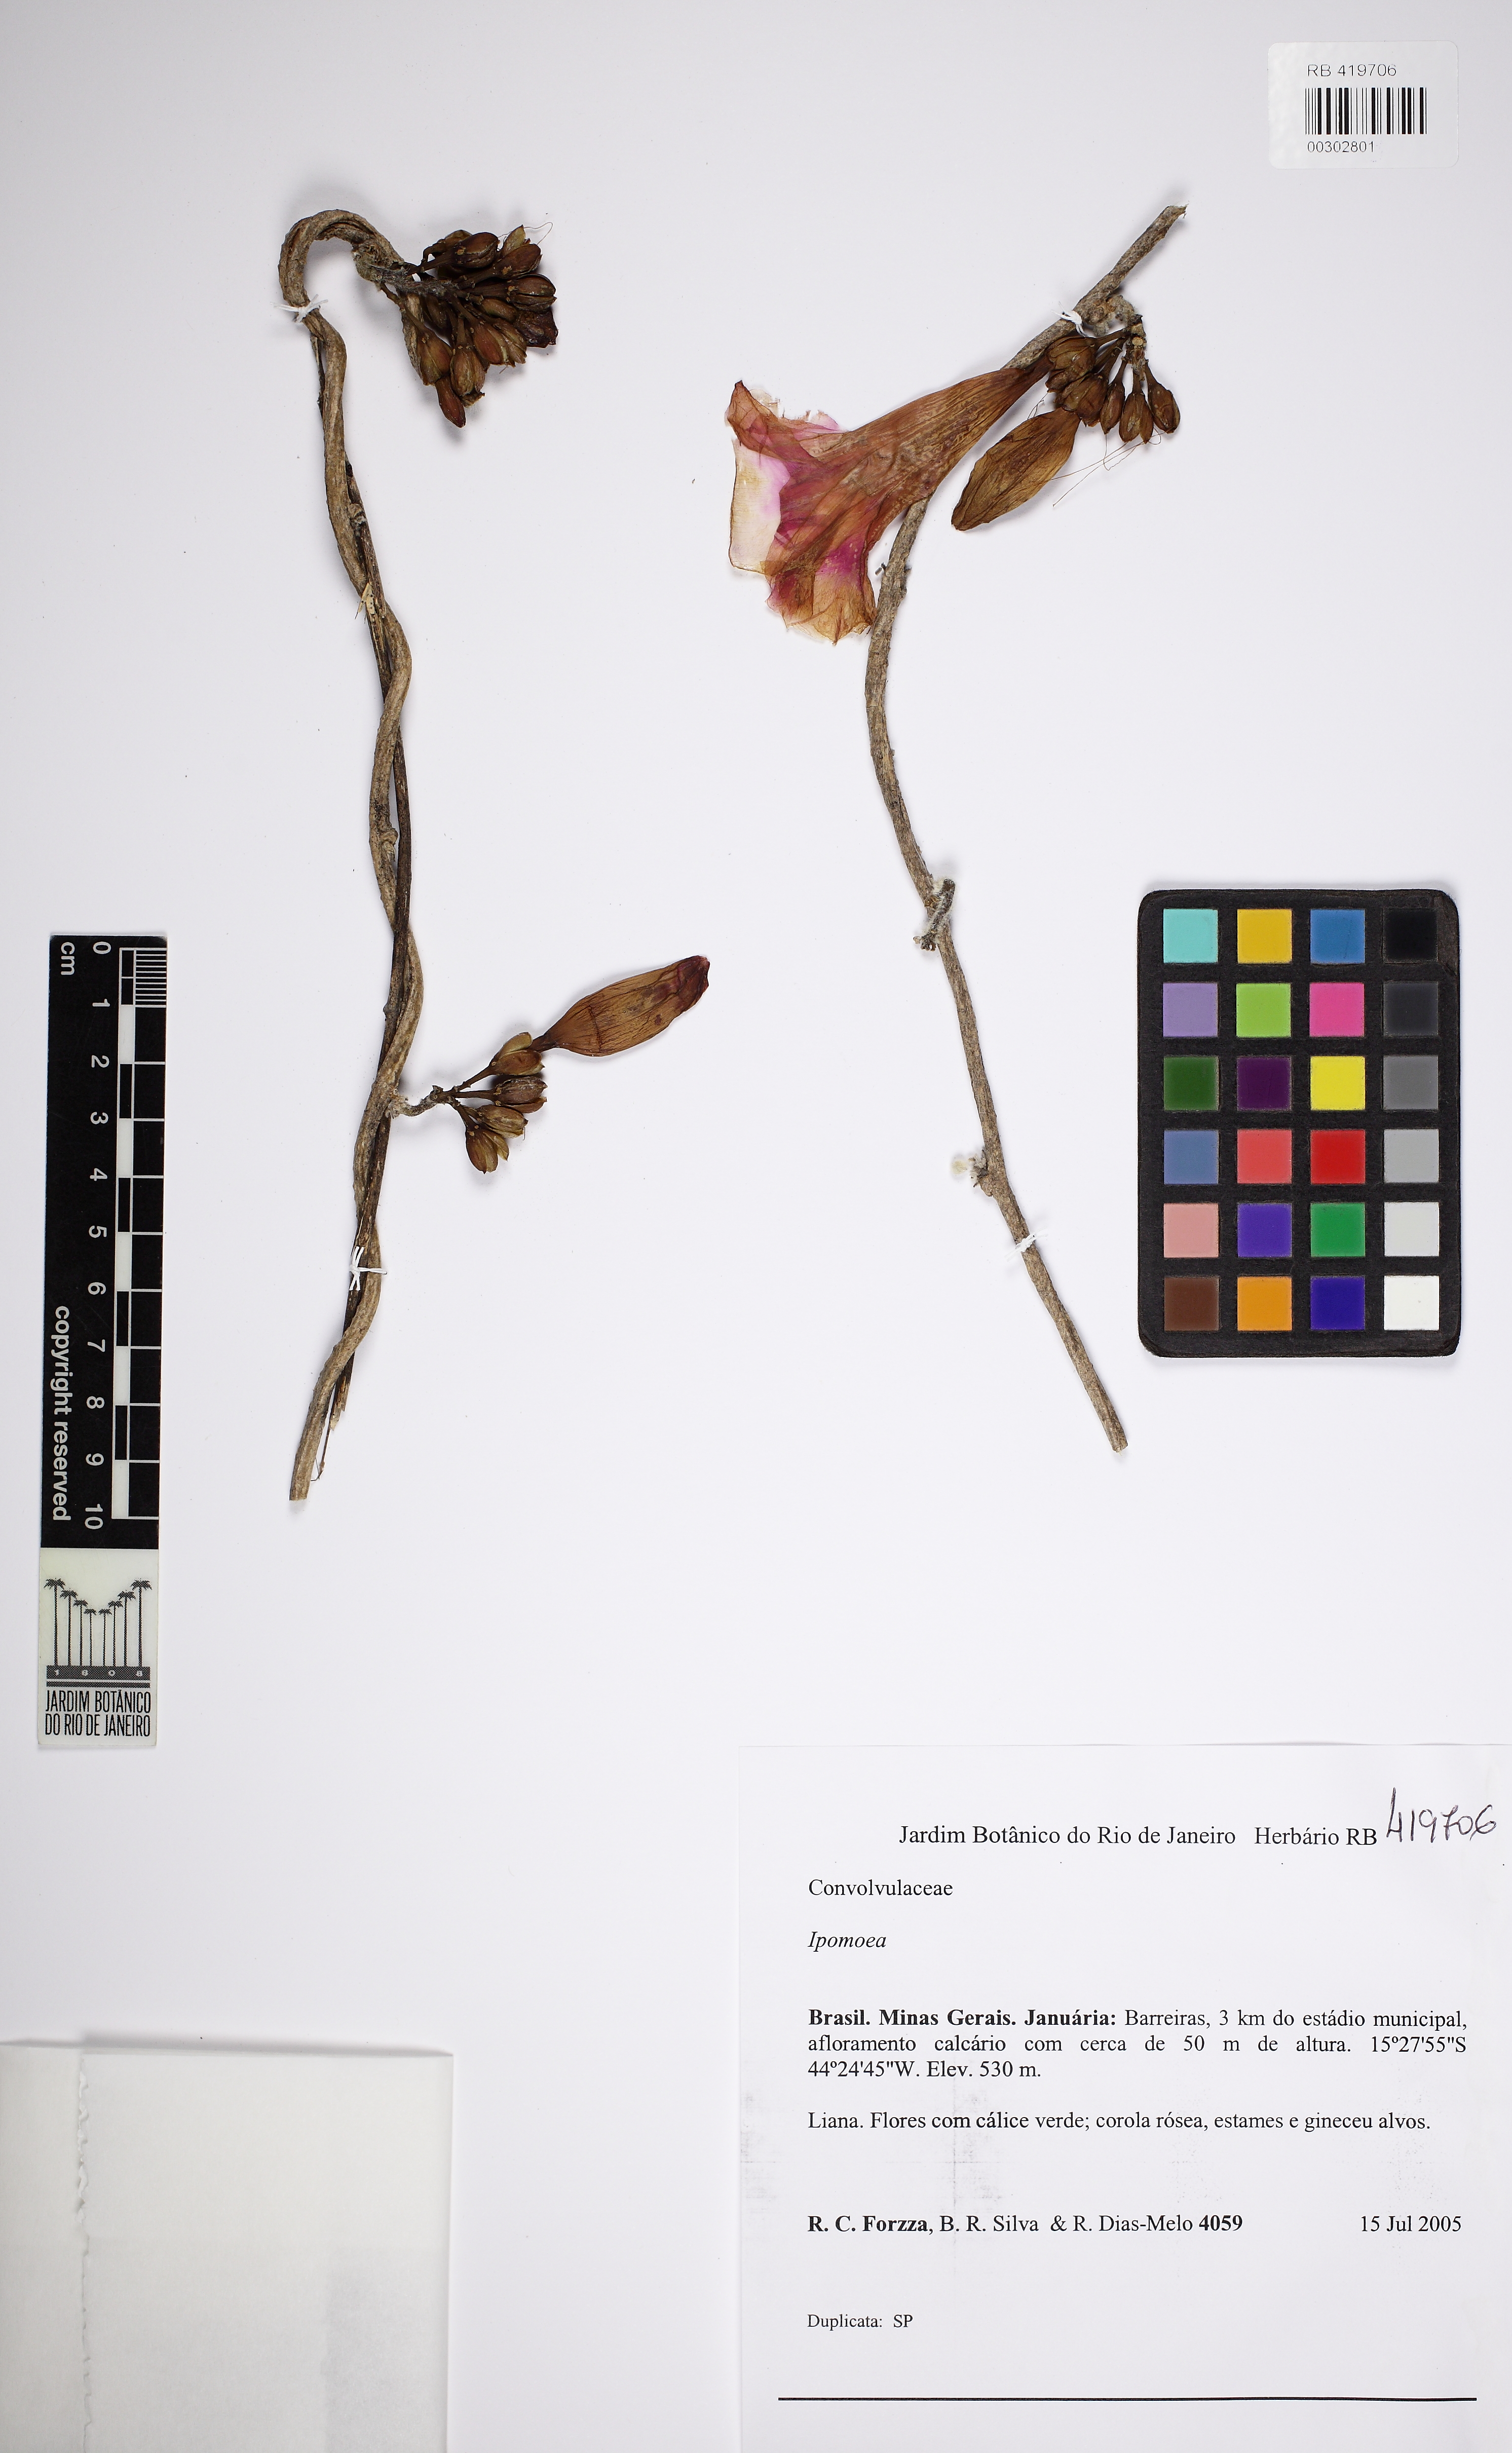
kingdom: Plantae
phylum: Tracheophyta
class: Magnoliopsida
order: Solanales
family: Convolvulaceae
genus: Ipomoea
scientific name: Ipomoea goyazensis
